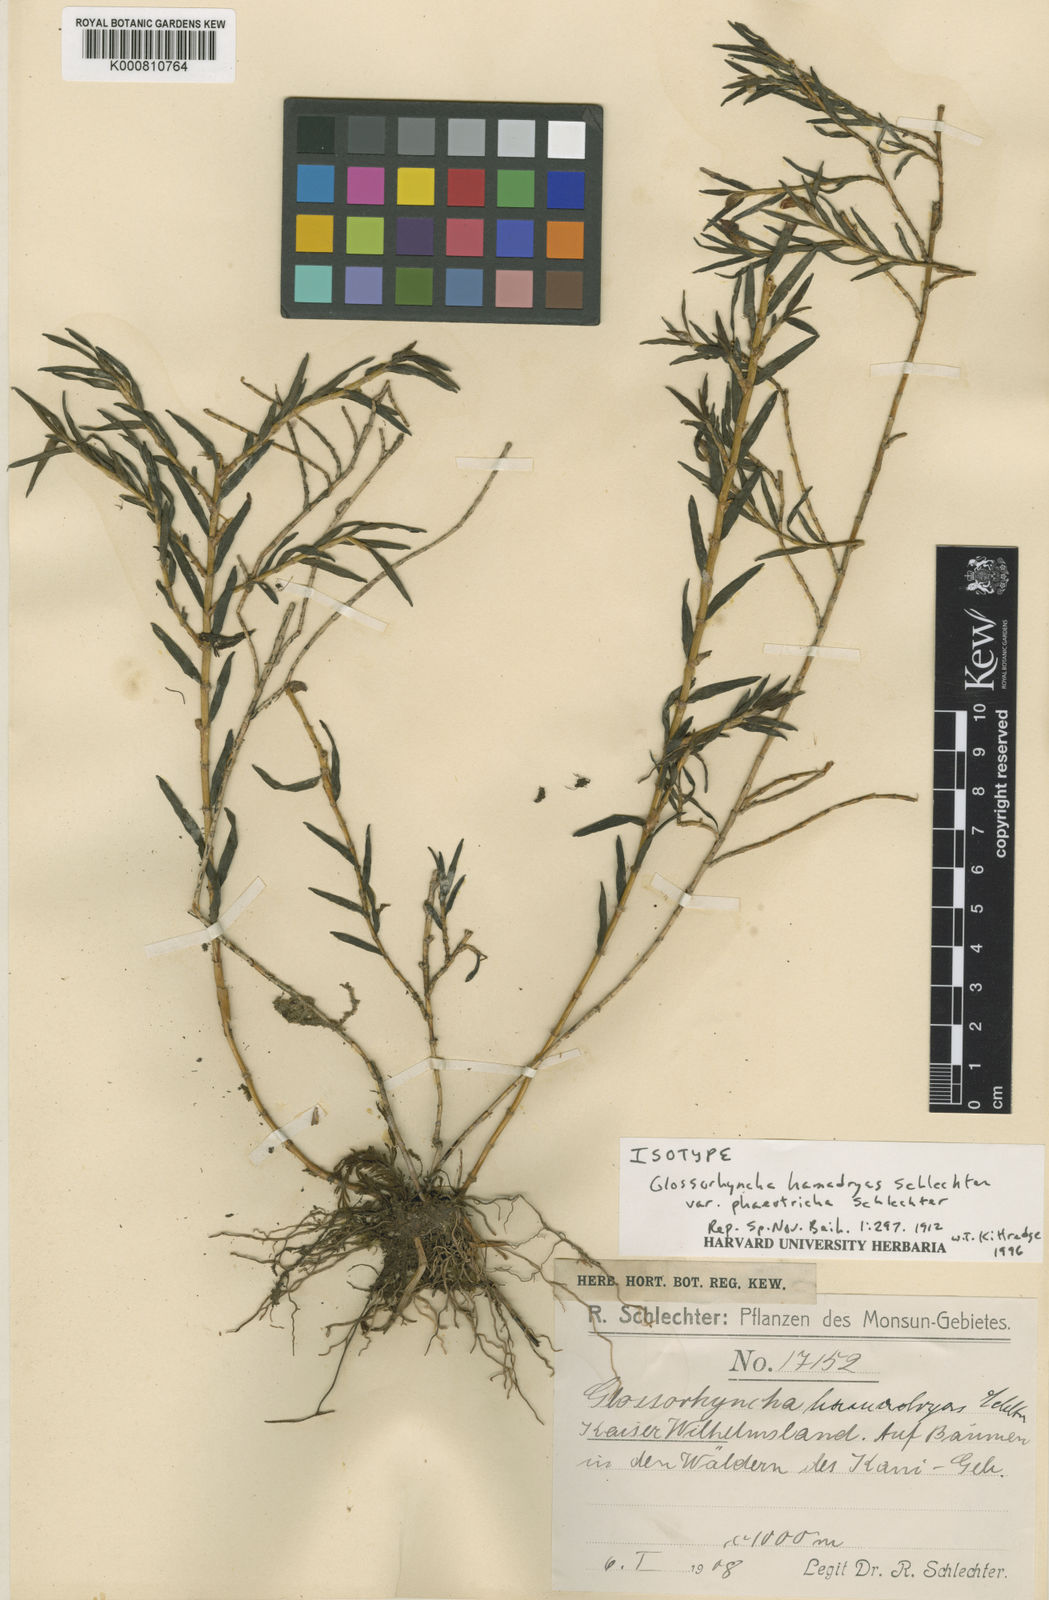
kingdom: Plantae
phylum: Tracheophyta
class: Liliopsida
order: Asparagales
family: Orchidaceae
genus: Glomera
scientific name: Glomera
